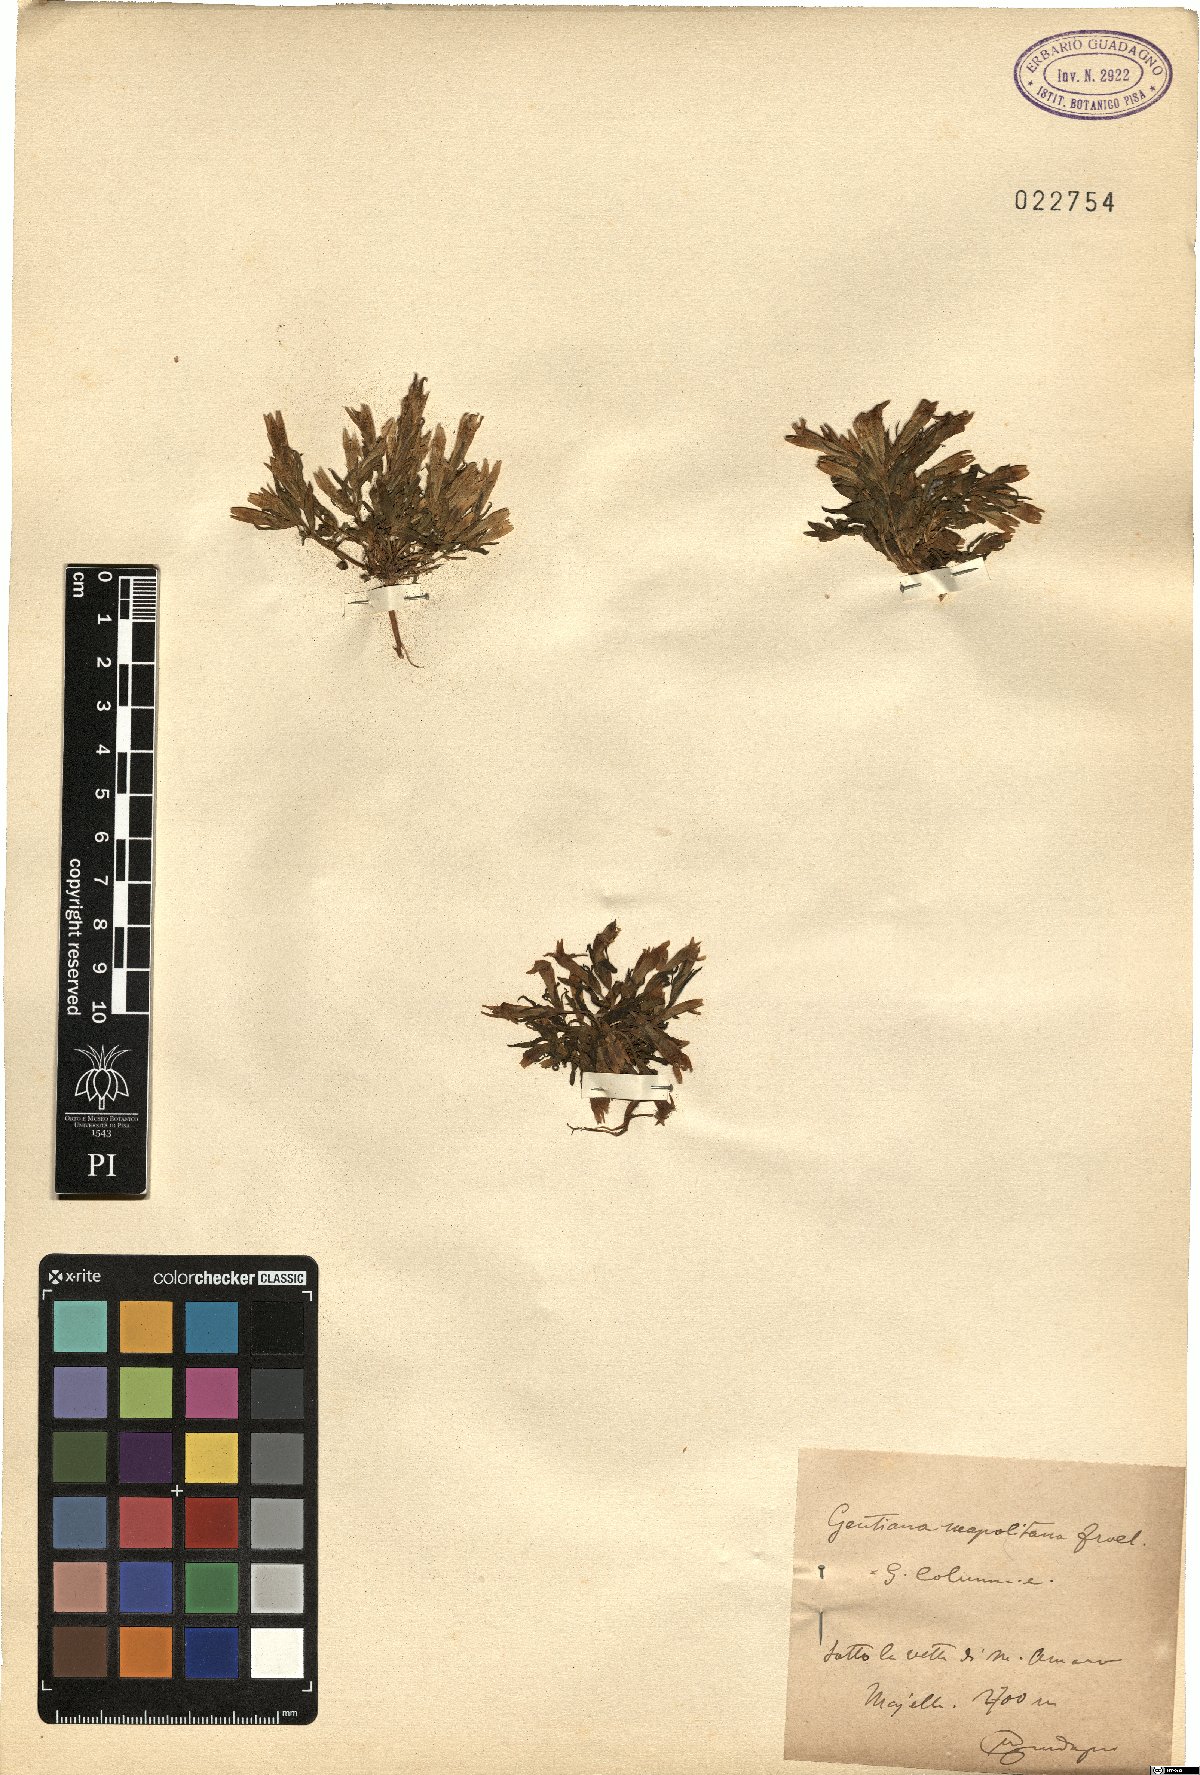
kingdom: Plantae
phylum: Tracheophyta
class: Magnoliopsida
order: Gentianales
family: Gentianaceae
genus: Gentianella
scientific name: Gentianella columnae
